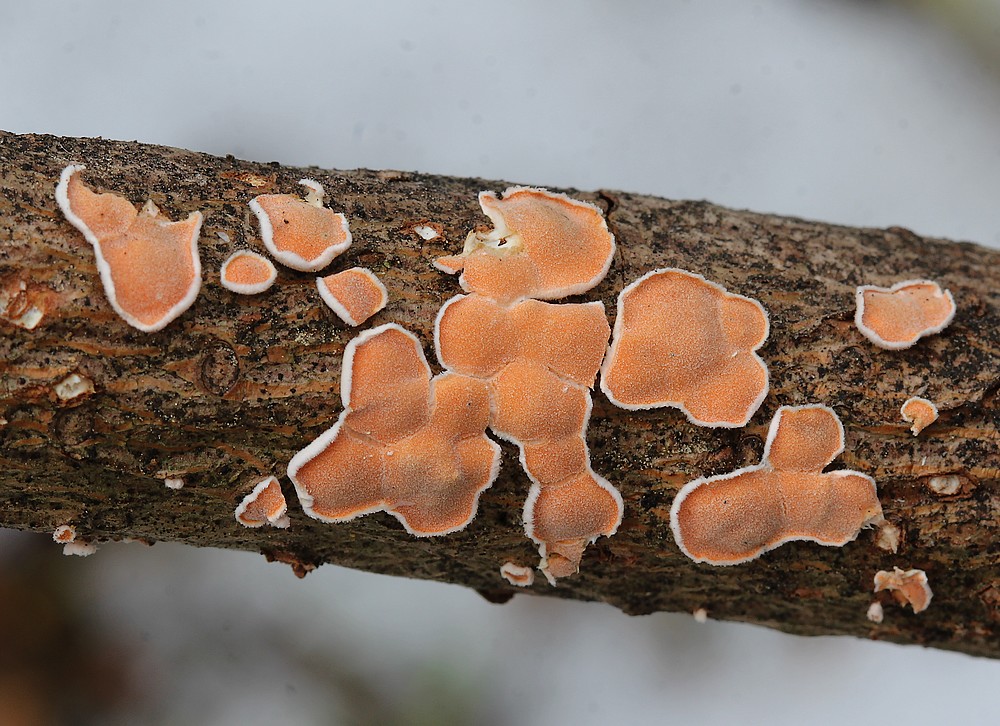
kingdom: Fungi
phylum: Basidiomycota
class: Agaricomycetes
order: Russulales
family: Stereaceae
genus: Aleurodiscus
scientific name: Aleurodiscus amorphus
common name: orange skiveskorpe
